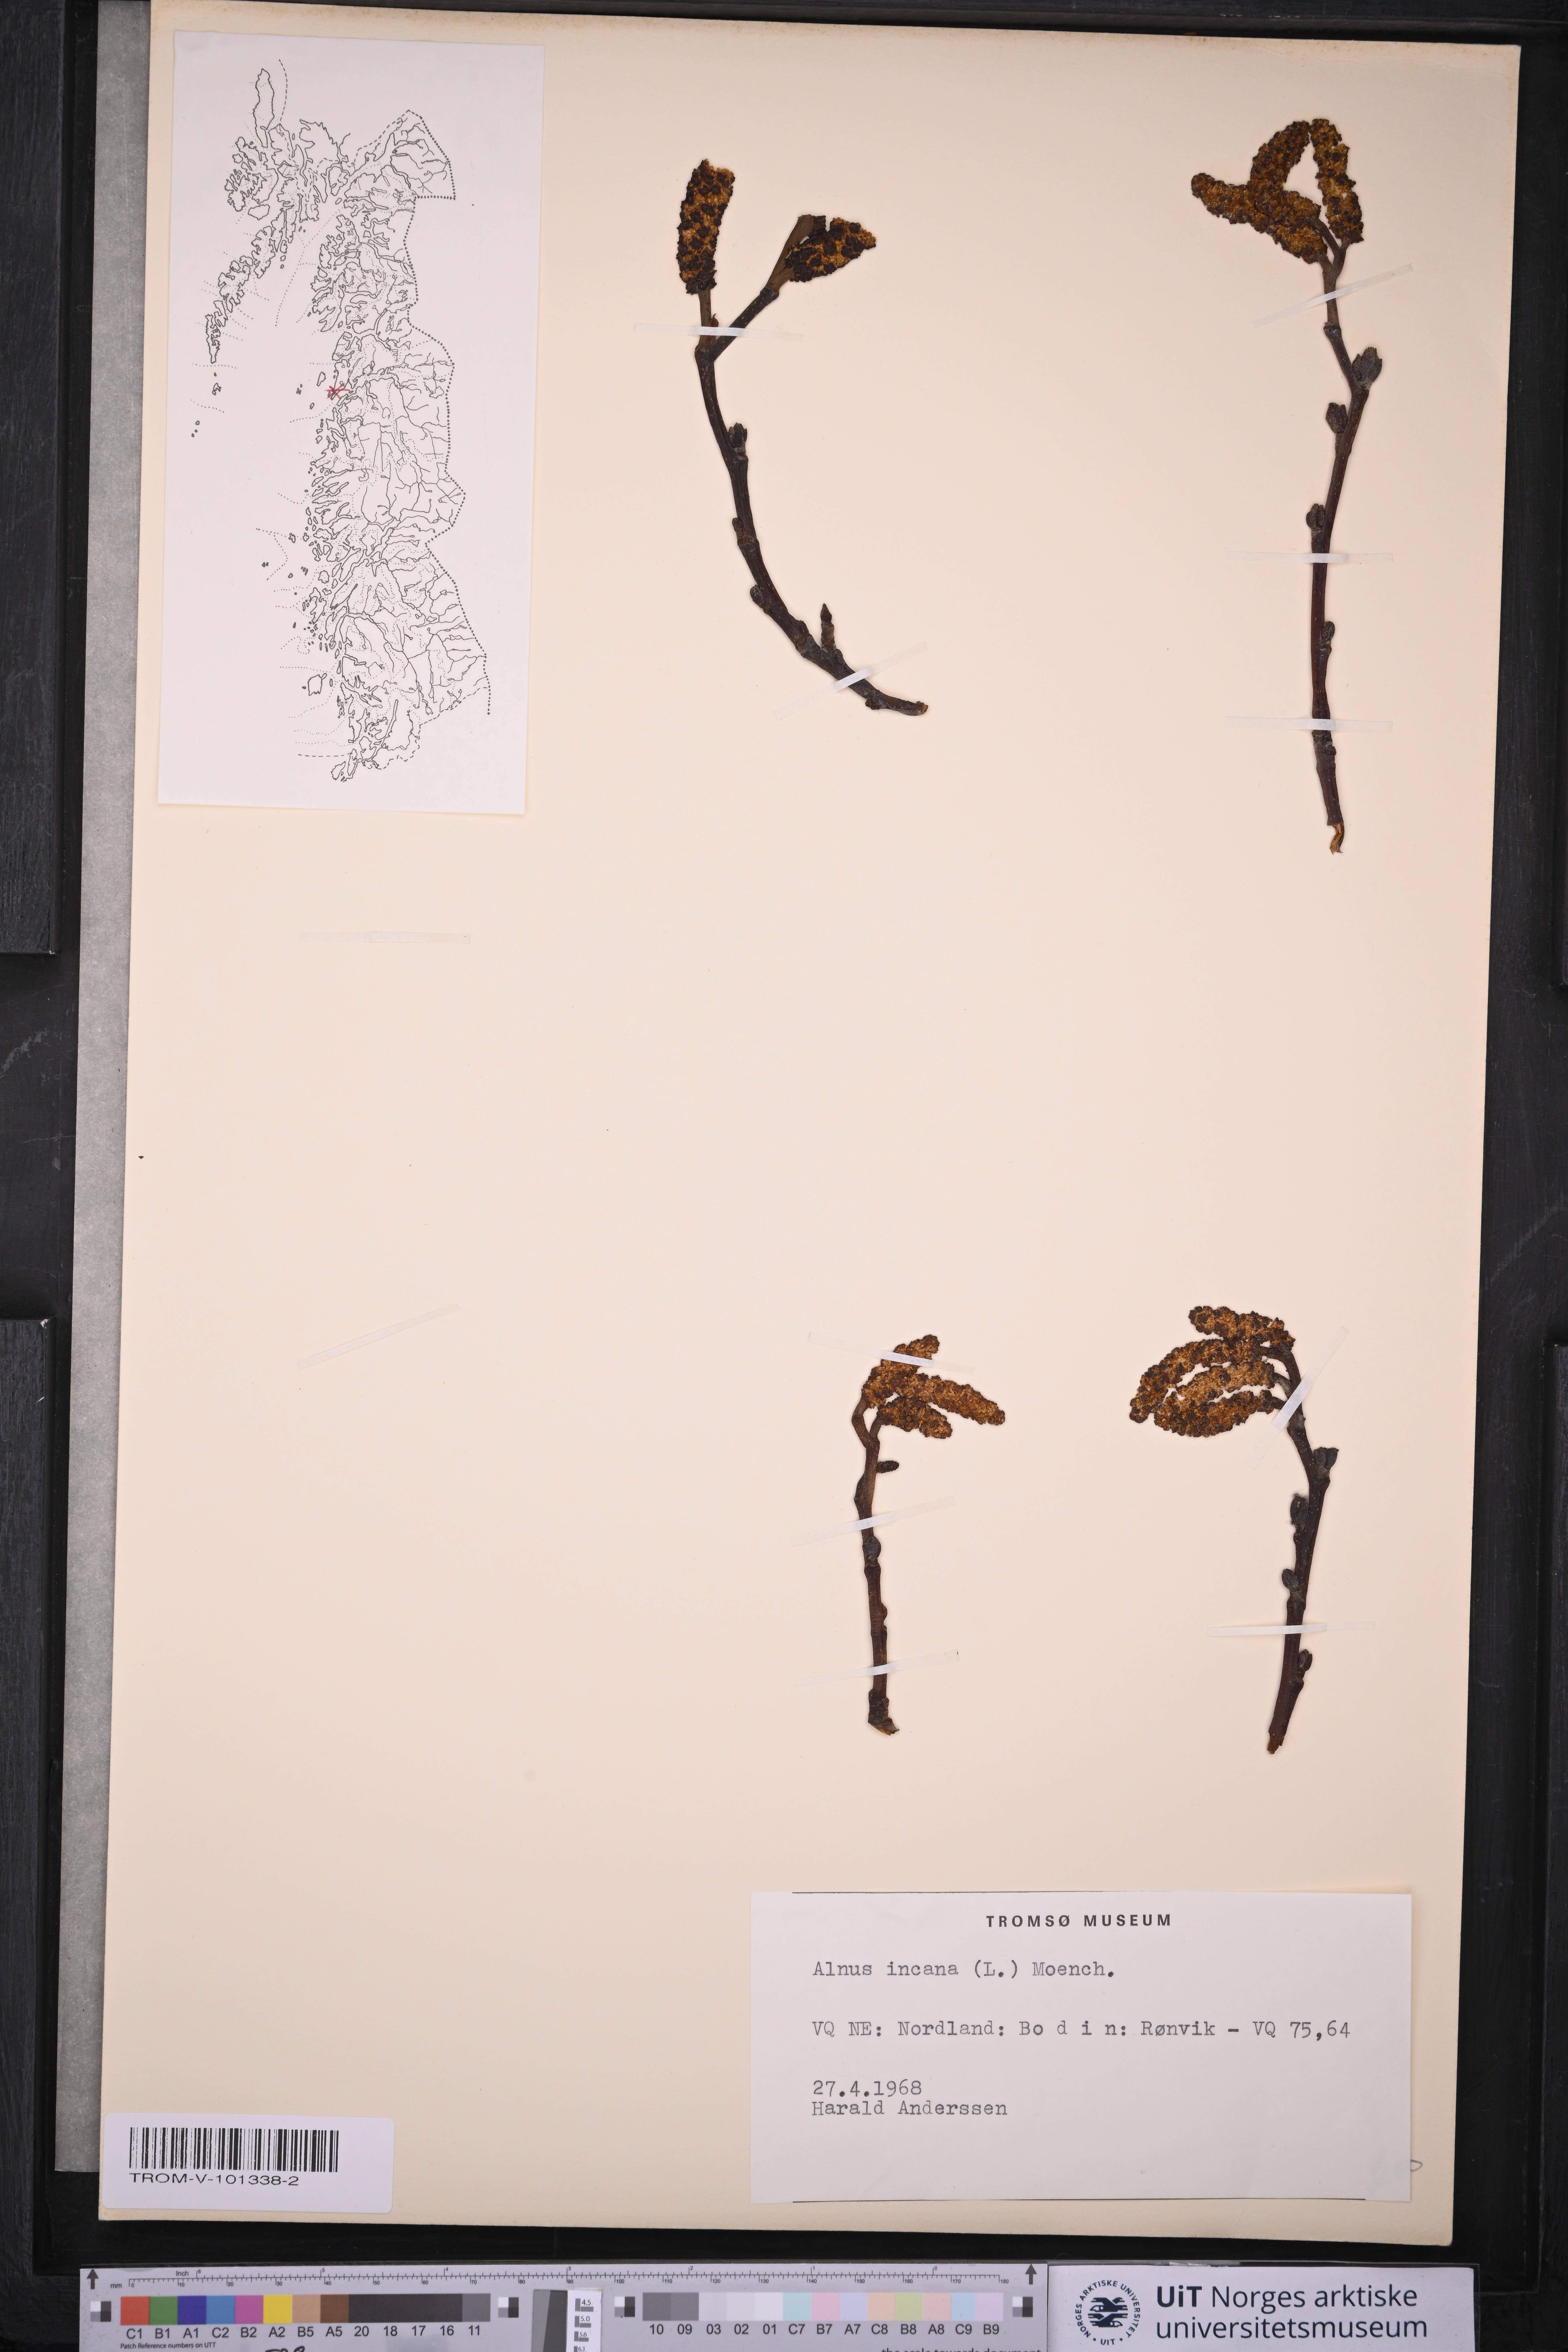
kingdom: Plantae
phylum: Tracheophyta
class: Magnoliopsida
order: Fagales
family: Betulaceae
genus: Alnus
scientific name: Alnus incana
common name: Grey alder
